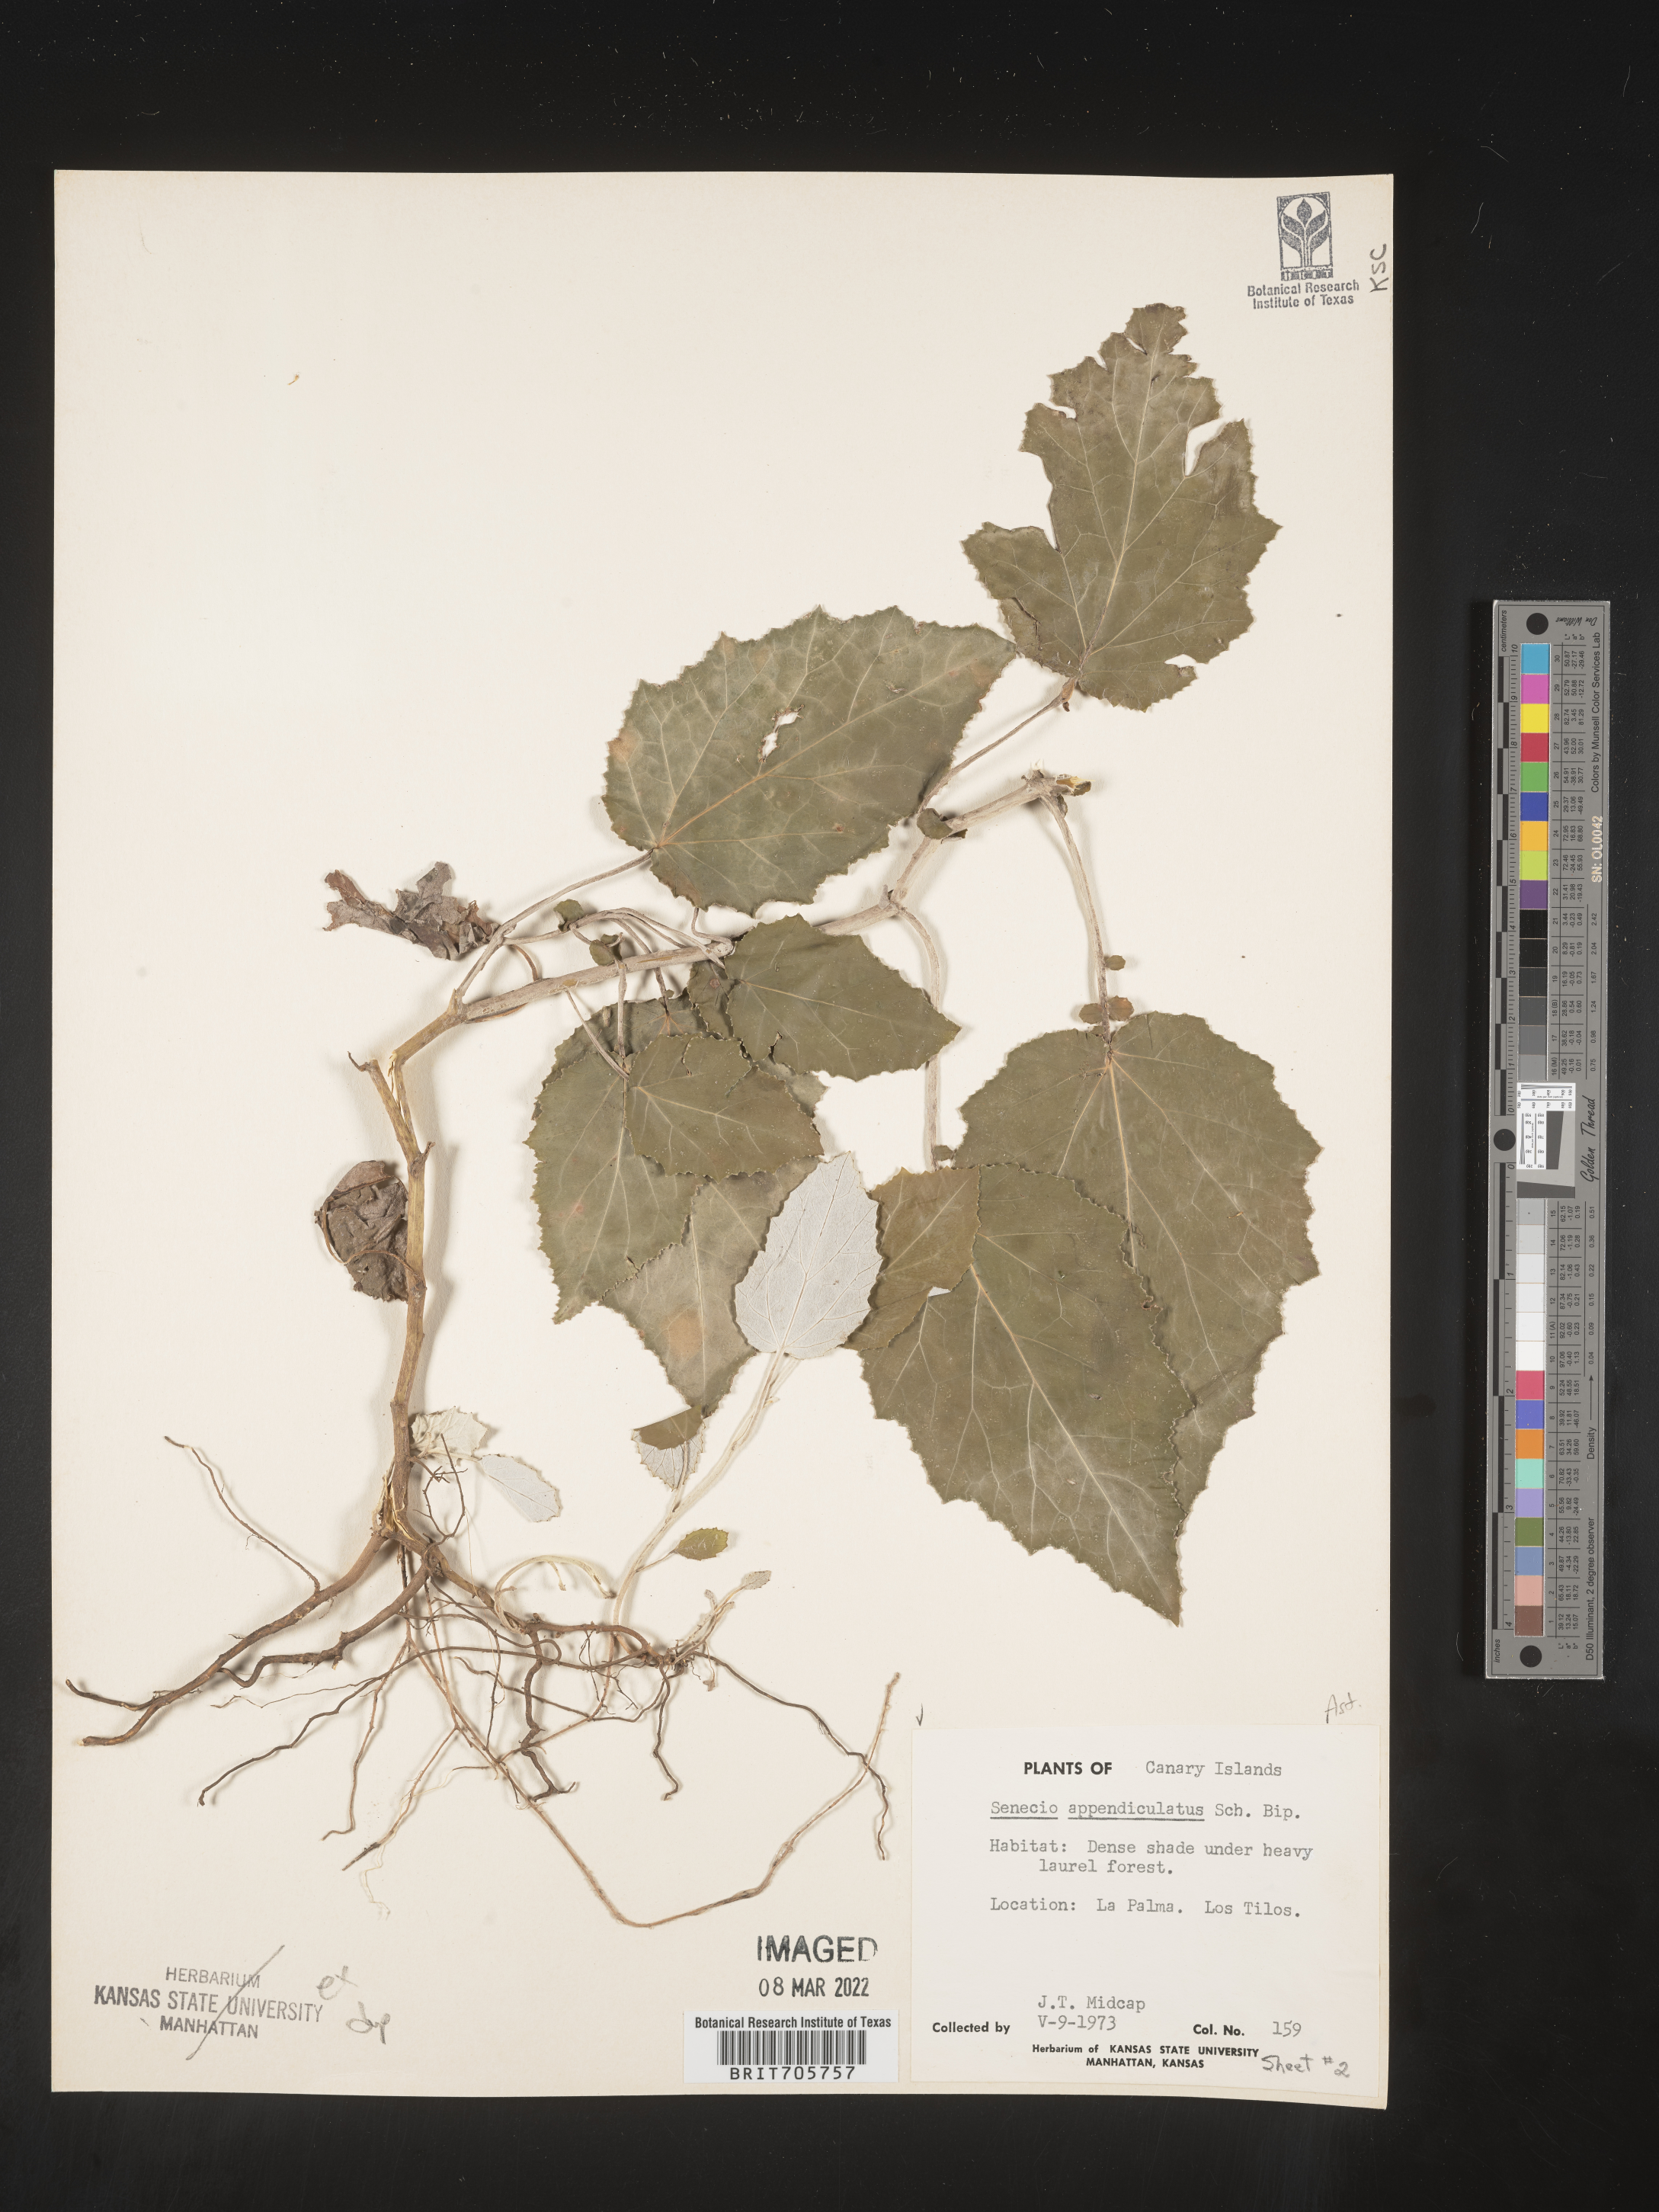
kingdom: Plantae
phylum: Tracheophyta
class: Magnoliopsida
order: Asterales
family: Asteraceae
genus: Senecio
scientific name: Senecio
